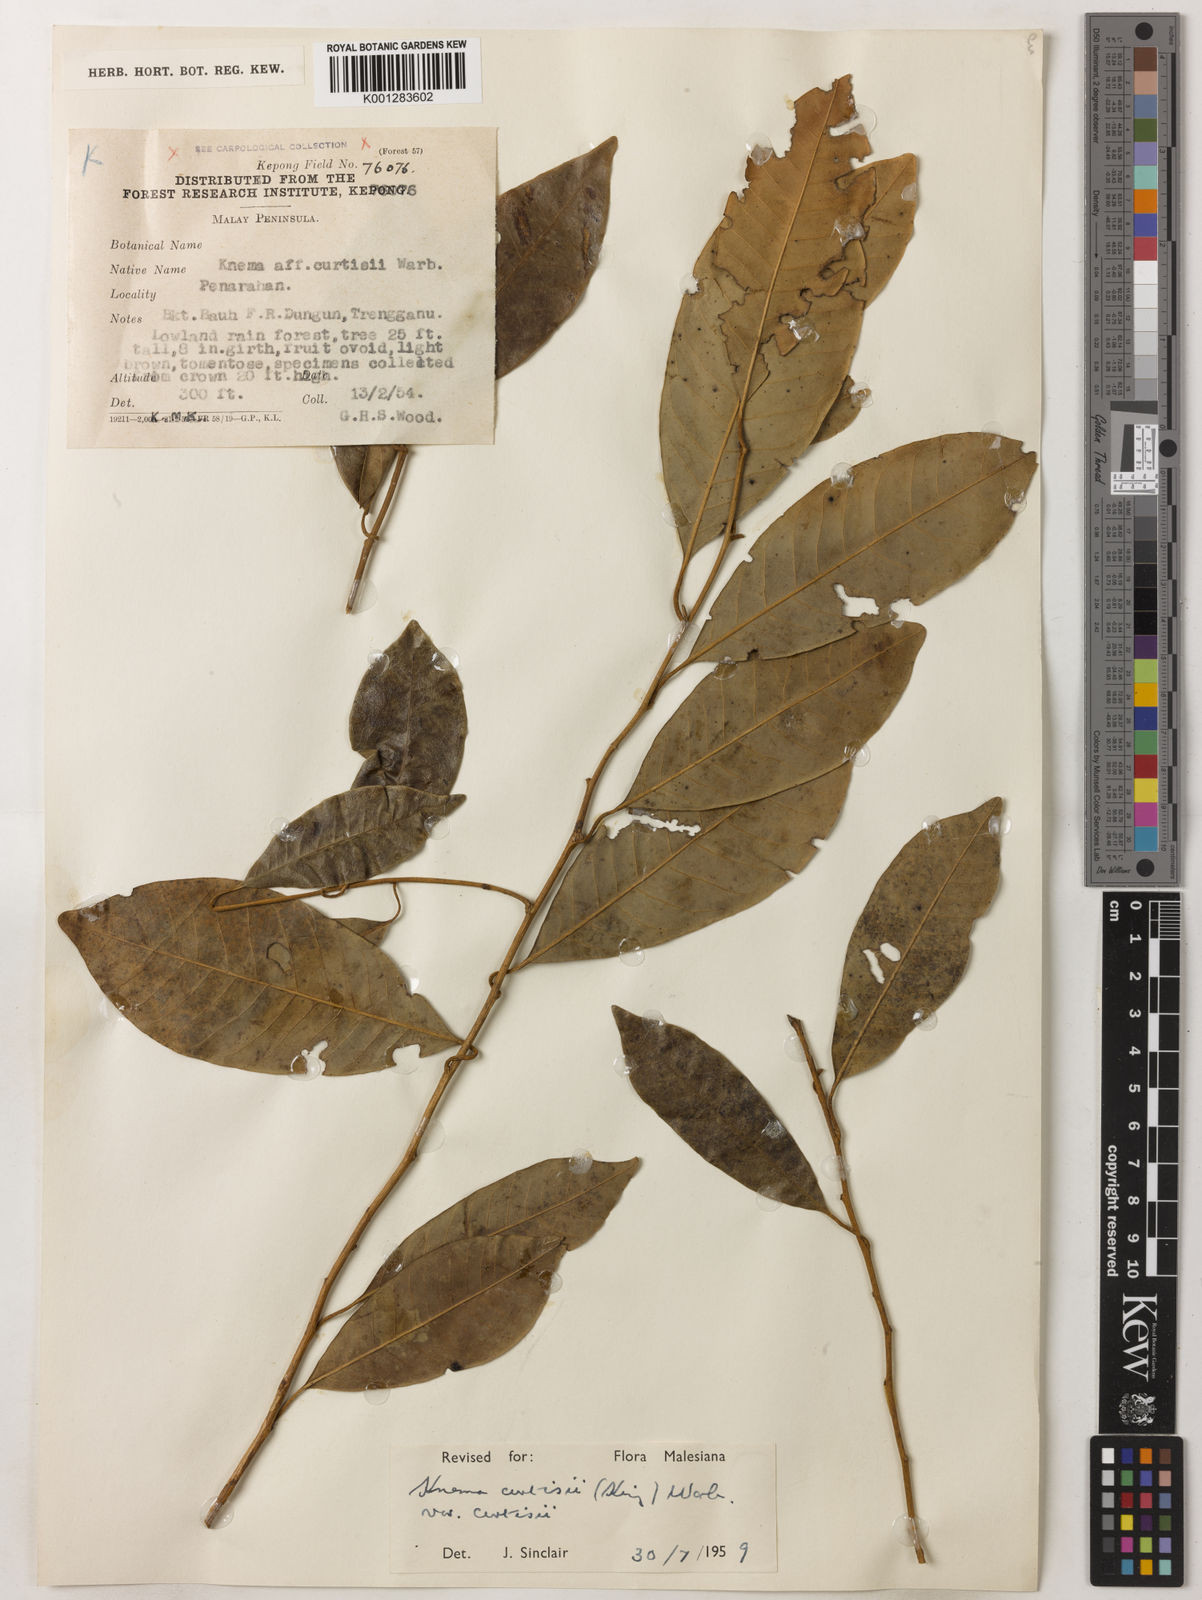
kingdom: Plantae
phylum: Tracheophyta
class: Magnoliopsida
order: Magnoliales
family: Myristicaceae
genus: Knema
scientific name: Knema curtisii
